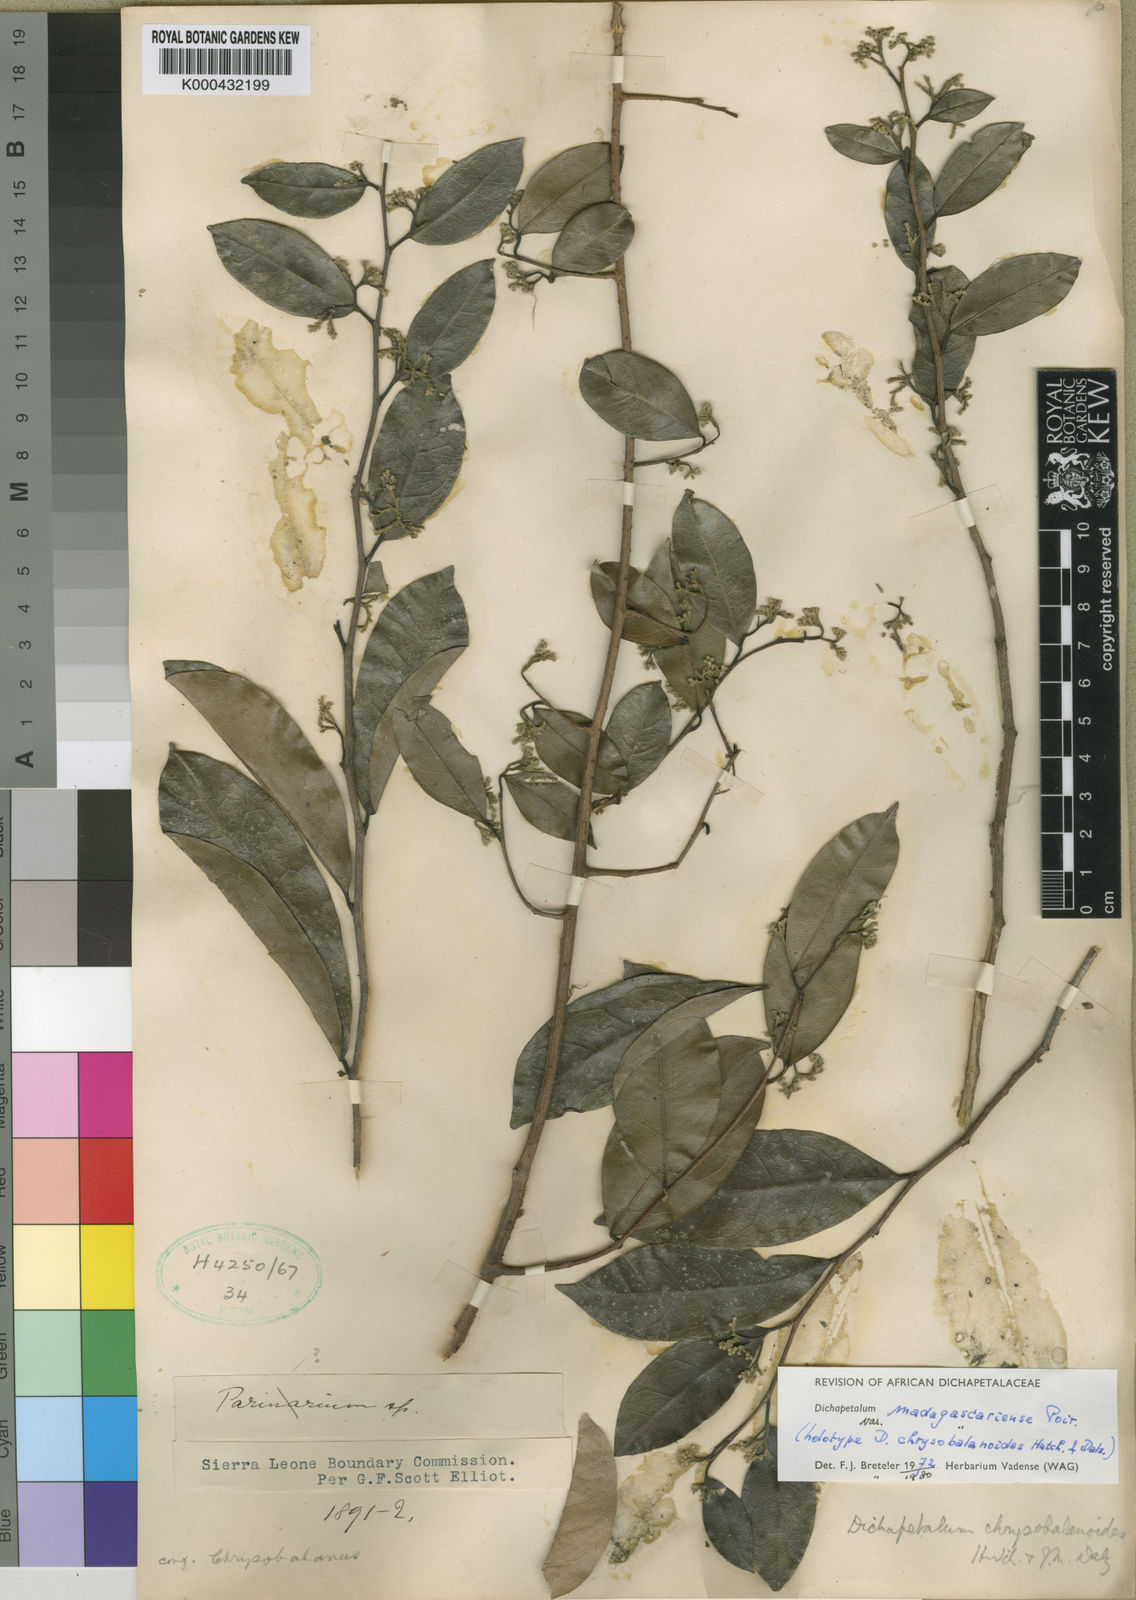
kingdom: Plantae
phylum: Tracheophyta
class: Magnoliopsida
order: Malpighiales
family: Dichapetalaceae
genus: Dichapetalum
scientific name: Dichapetalum madagascariense
